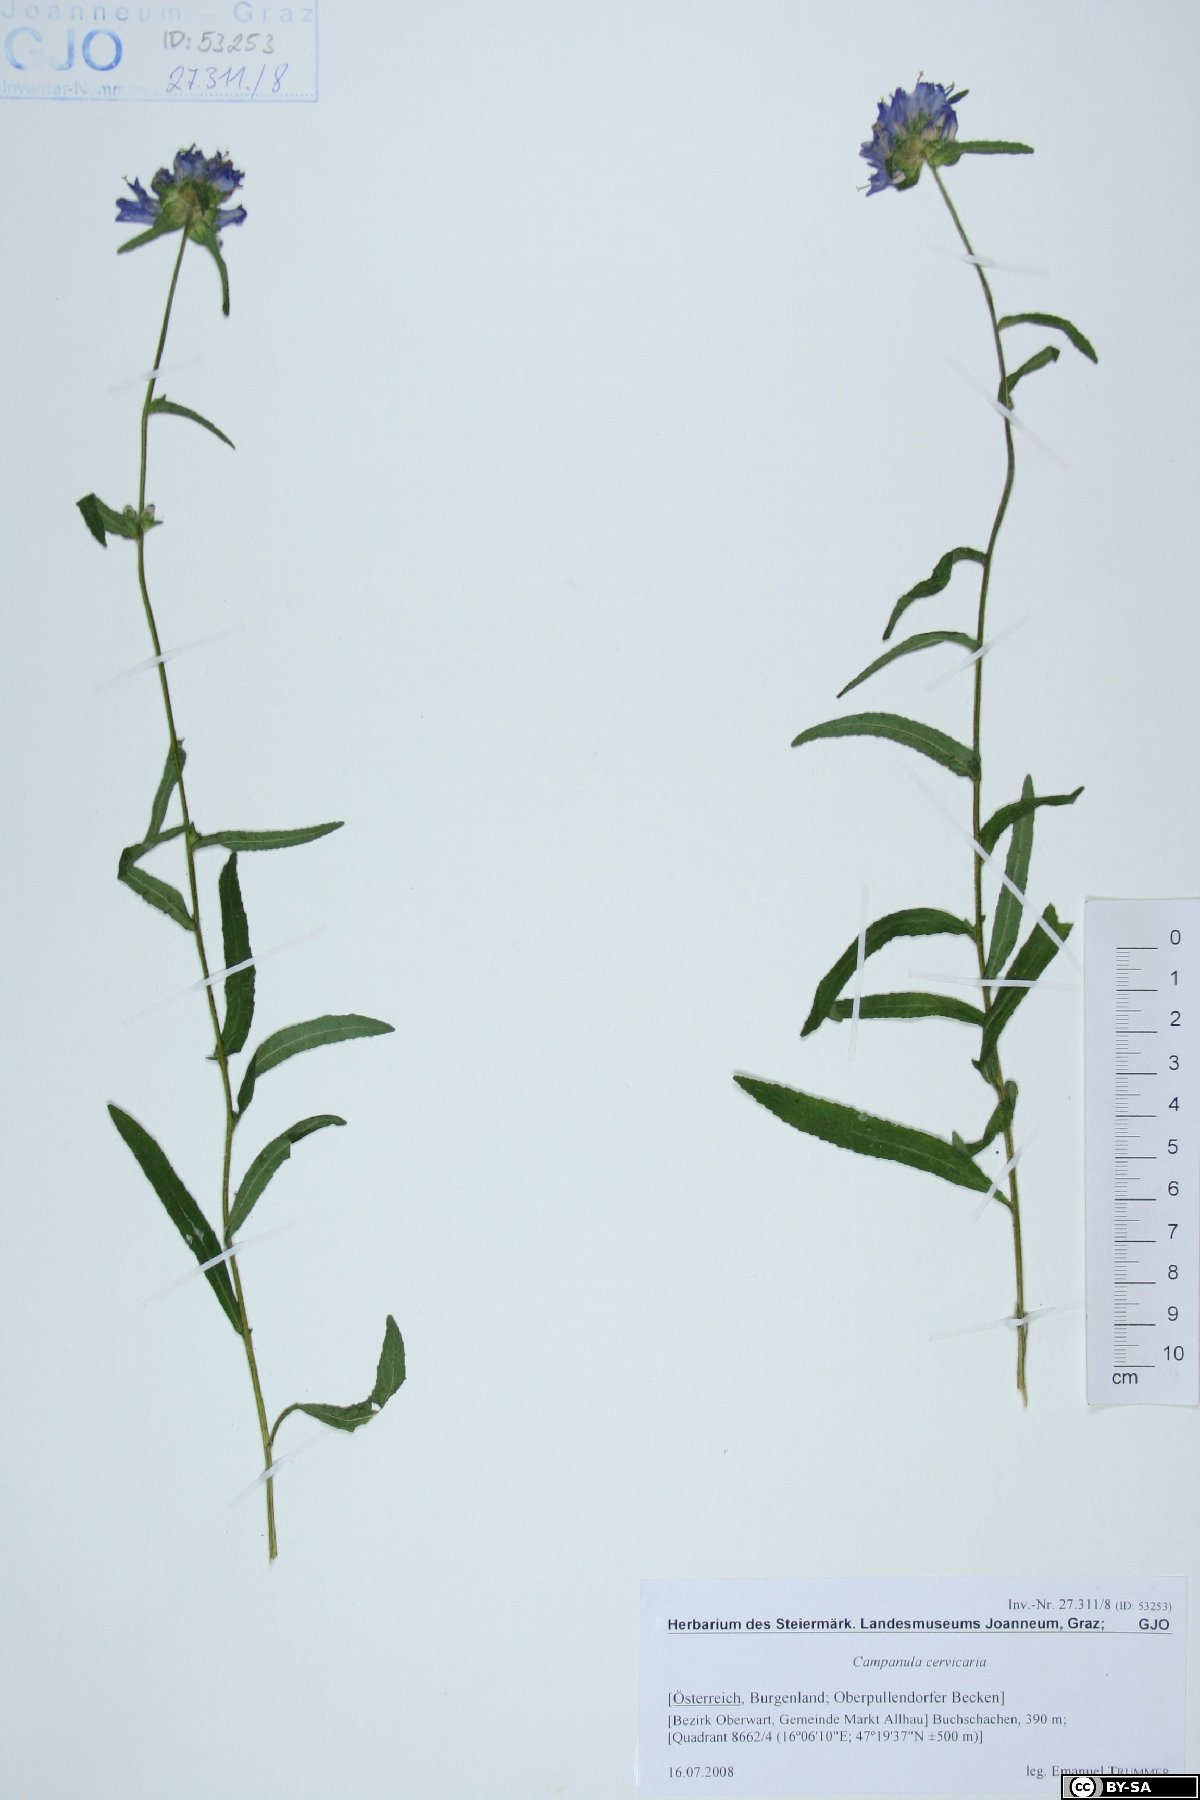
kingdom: Plantae
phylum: Tracheophyta
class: Magnoliopsida
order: Asterales
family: Campanulaceae
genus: Campanula
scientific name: Campanula cervicaria
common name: Bristly bellflower
